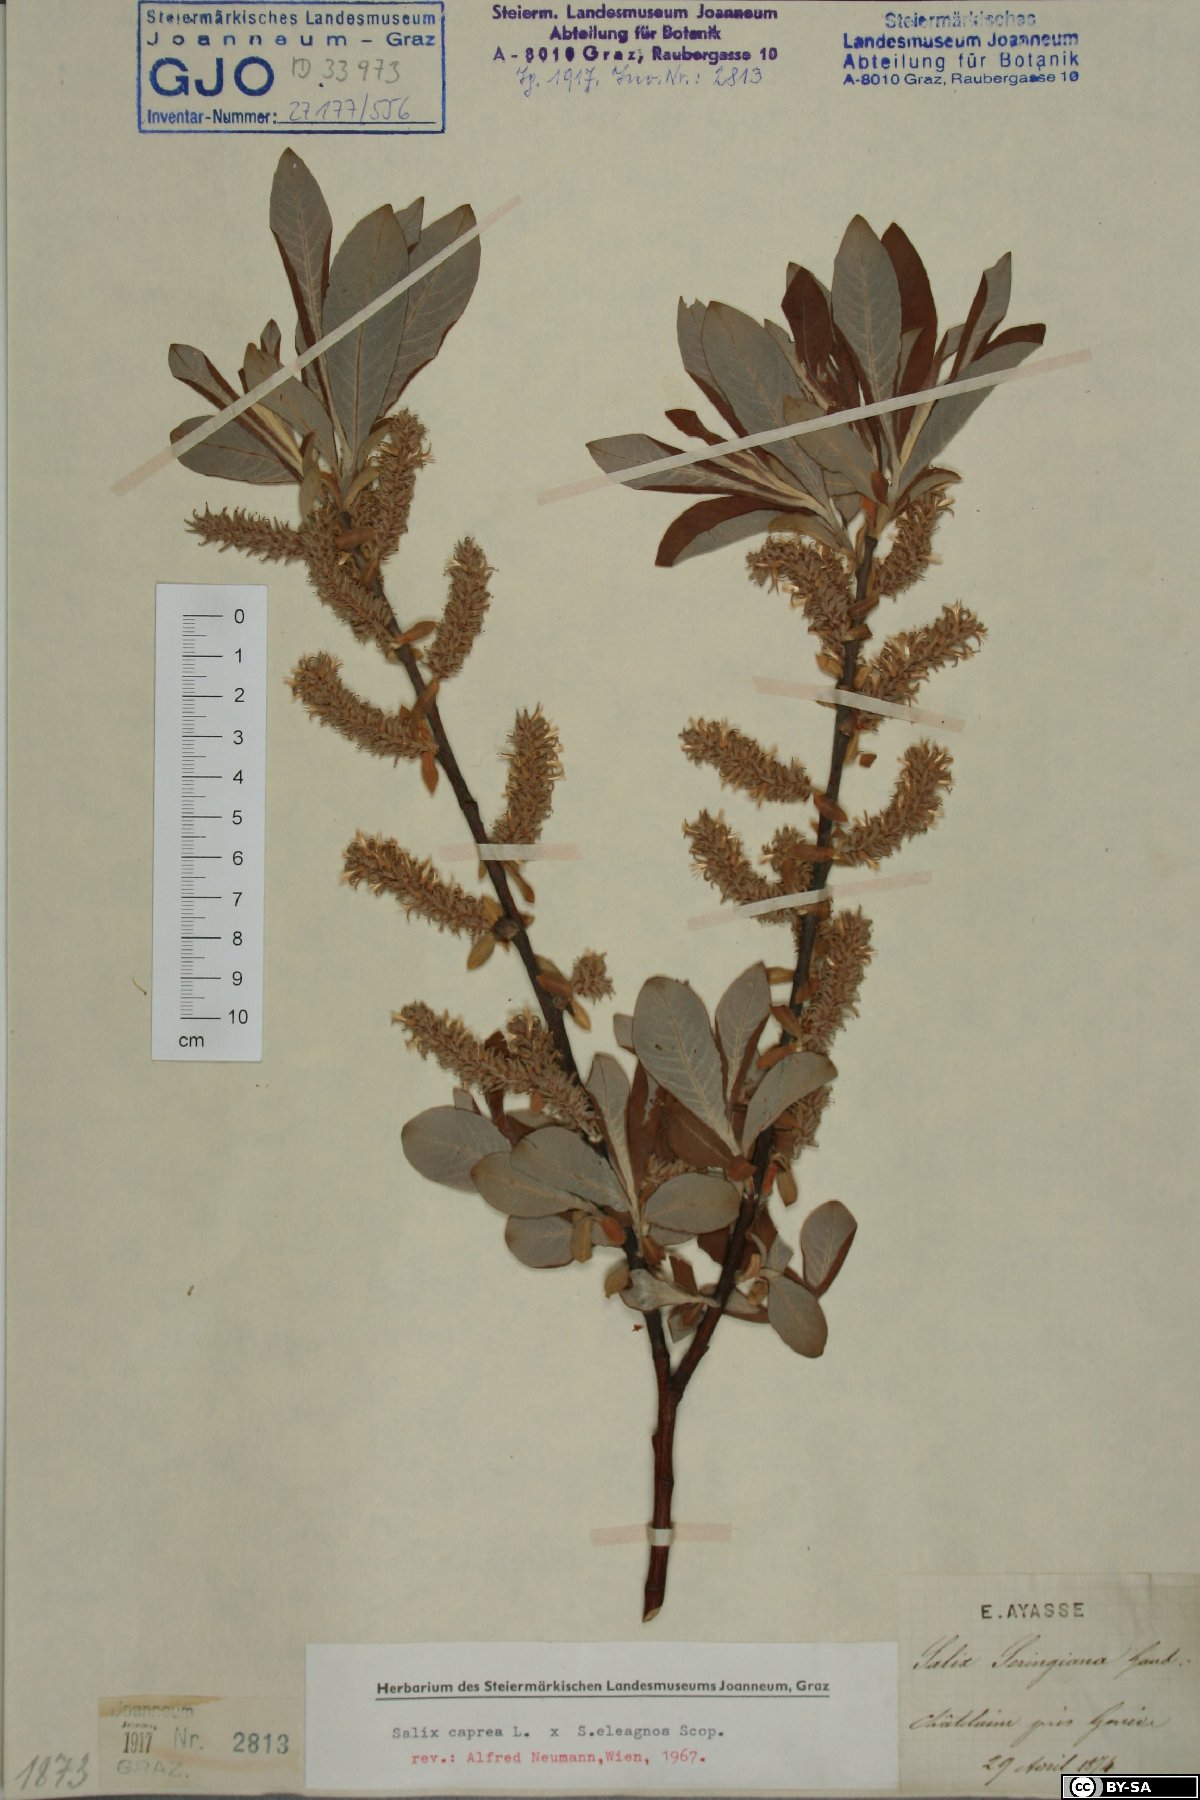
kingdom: Plantae
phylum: Tracheophyta
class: Magnoliopsida
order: Malpighiales
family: Salicaceae
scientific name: Salicaceae
